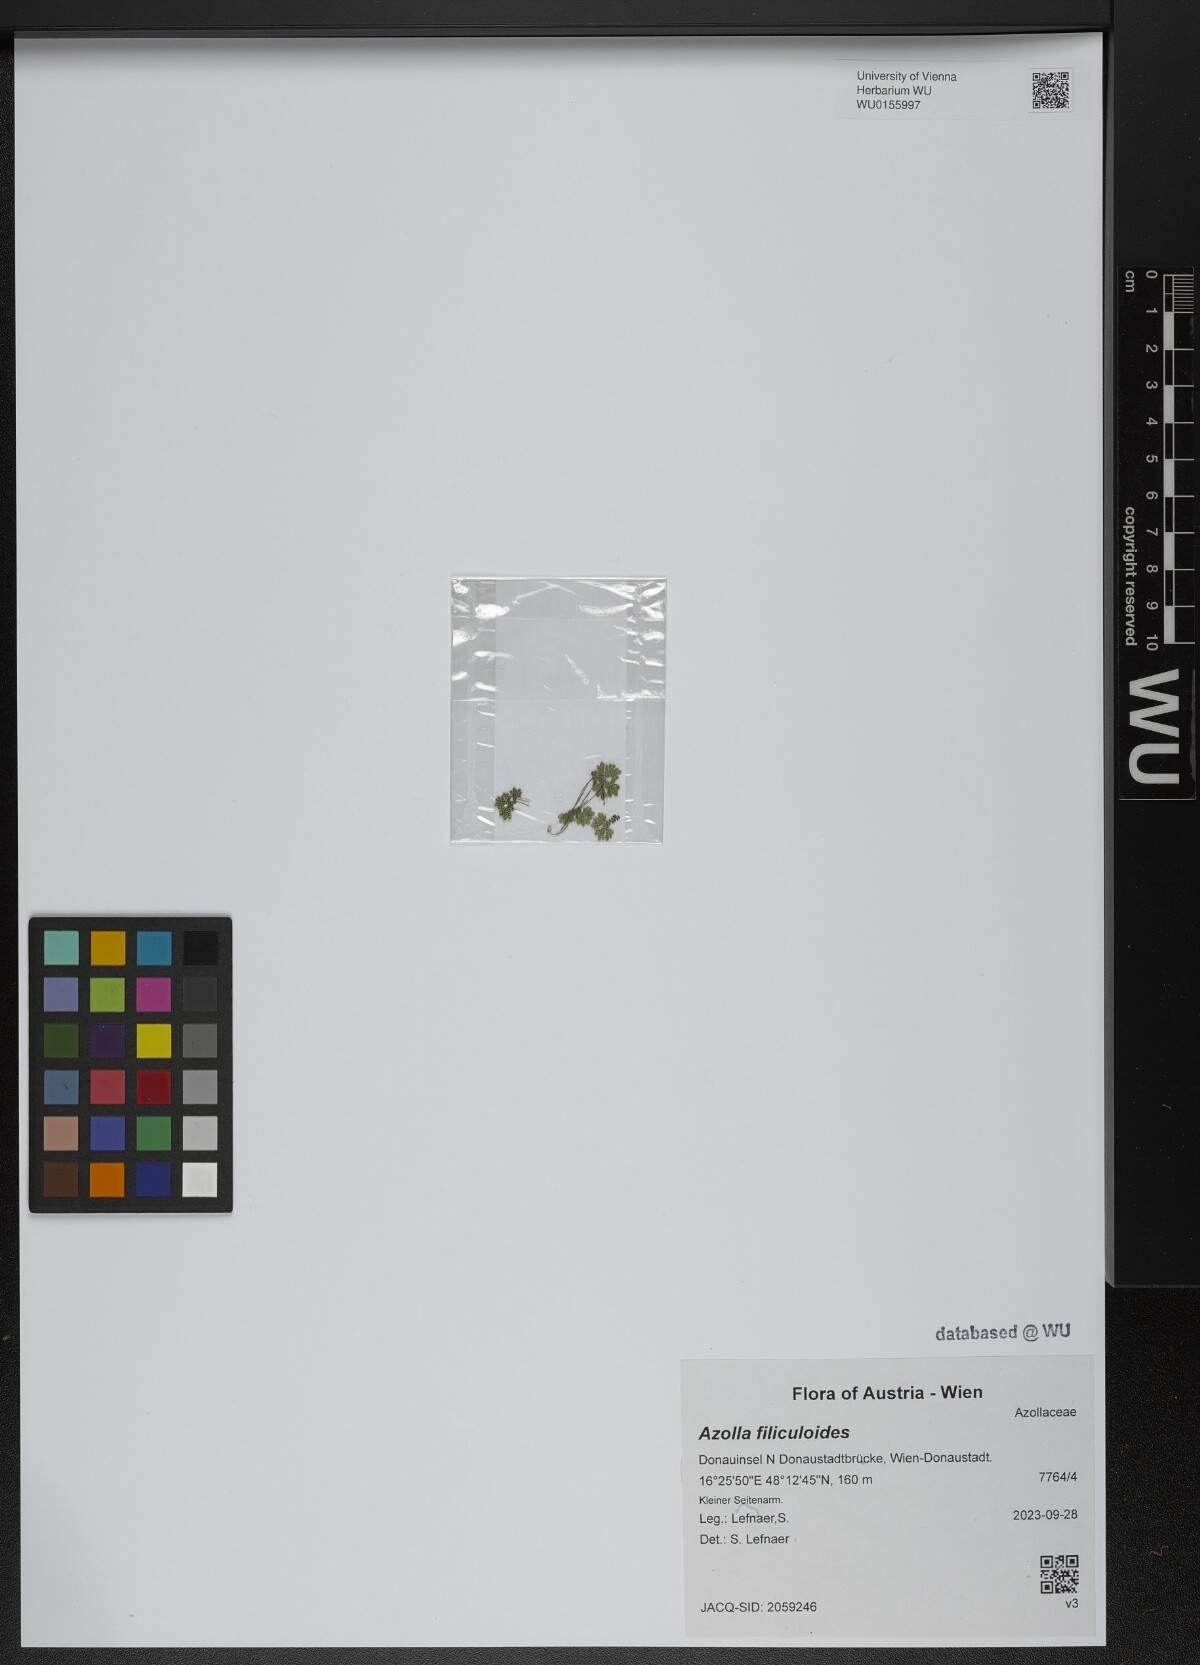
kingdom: Plantae
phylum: Tracheophyta
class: Polypodiopsida
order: Salviniales
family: Salviniaceae
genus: Azolla
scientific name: Azolla filiculoides
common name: Water fern
